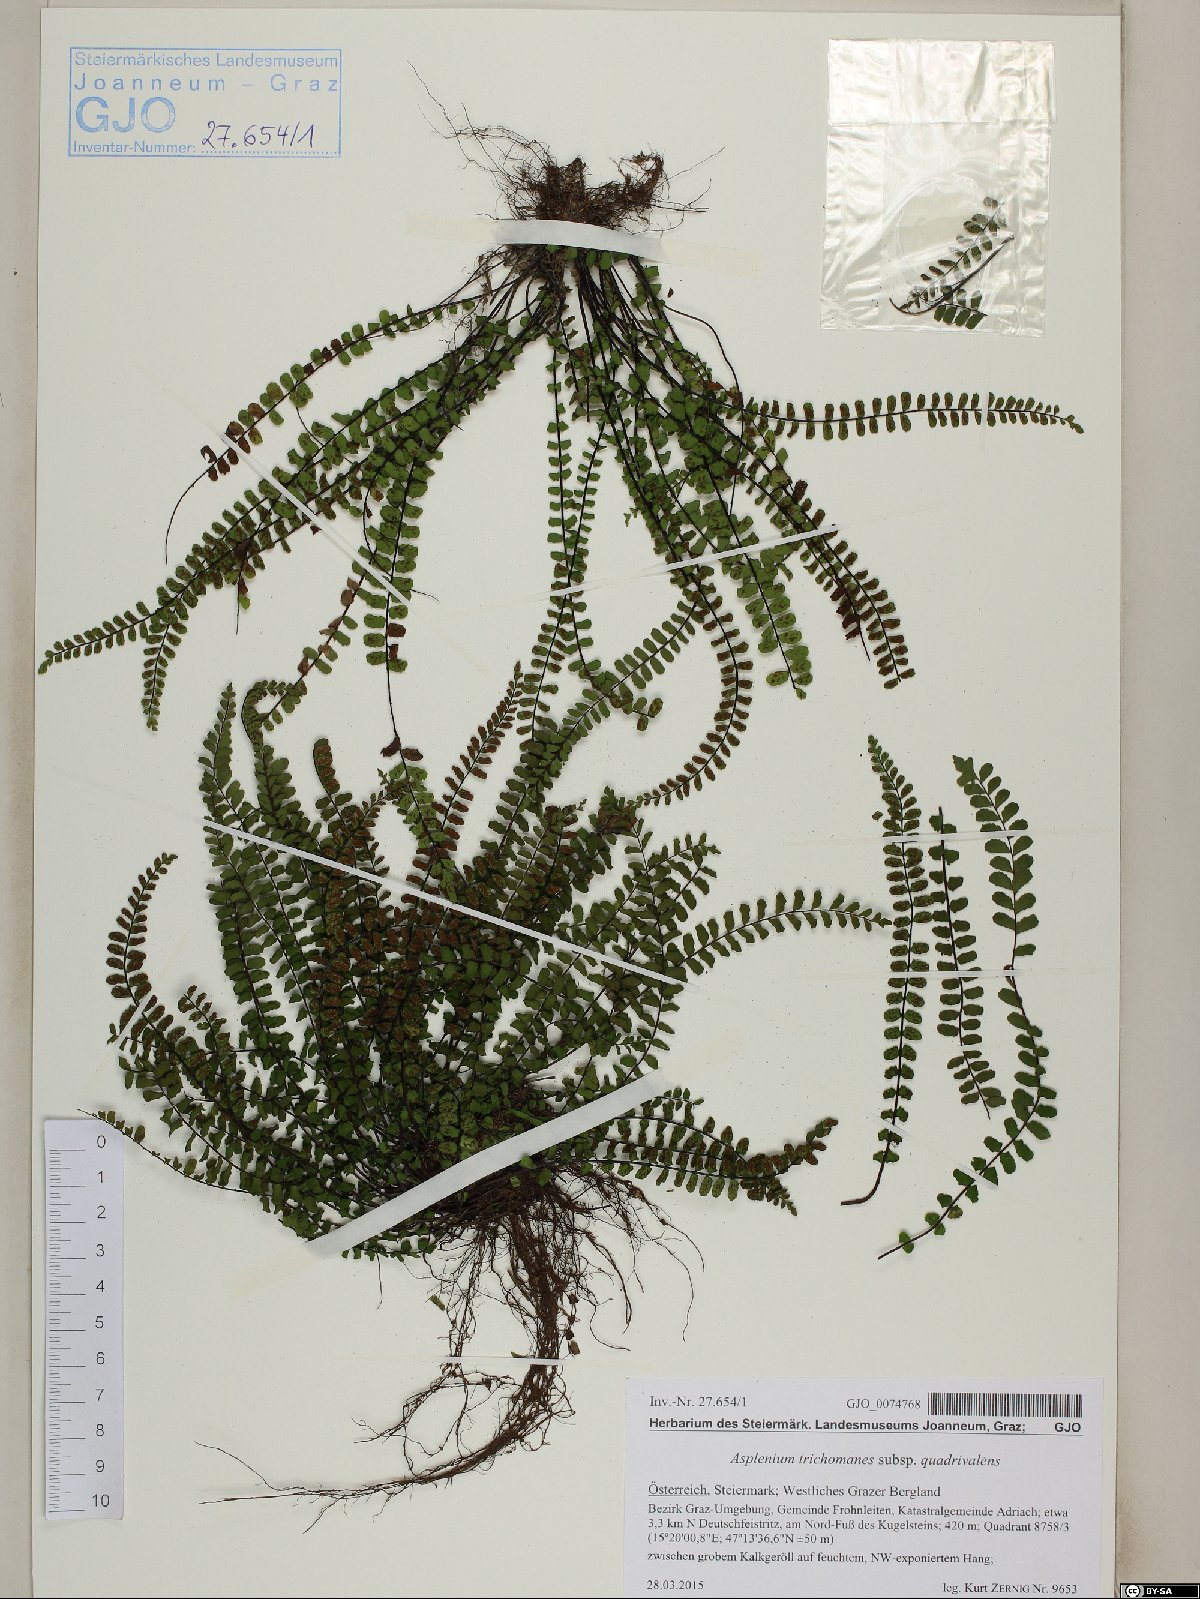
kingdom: Plantae
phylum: Tracheophyta
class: Polypodiopsida
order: Polypodiales
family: Aspleniaceae
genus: Asplenium
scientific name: Asplenium quadrivalens
